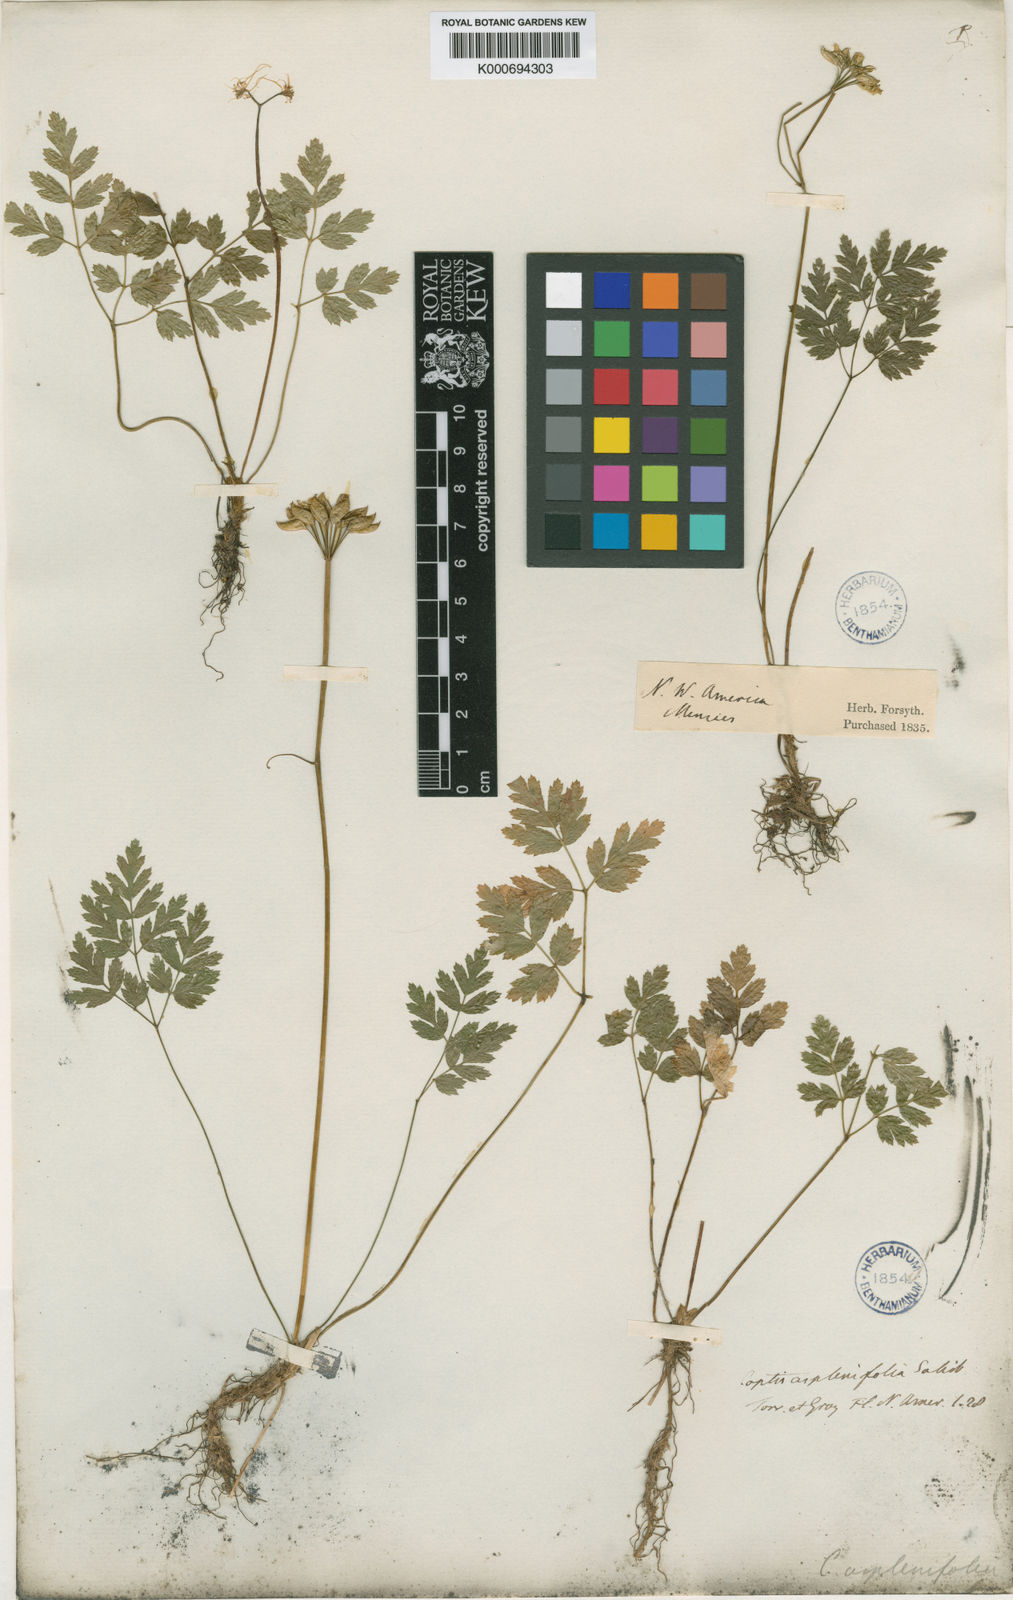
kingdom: Plantae
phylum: Tracheophyta
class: Magnoliopsida
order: Ranunculales
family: Ranunculaceae
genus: Coptis
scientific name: Coptis aspleniifolia
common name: Fern-leaved goldthread
